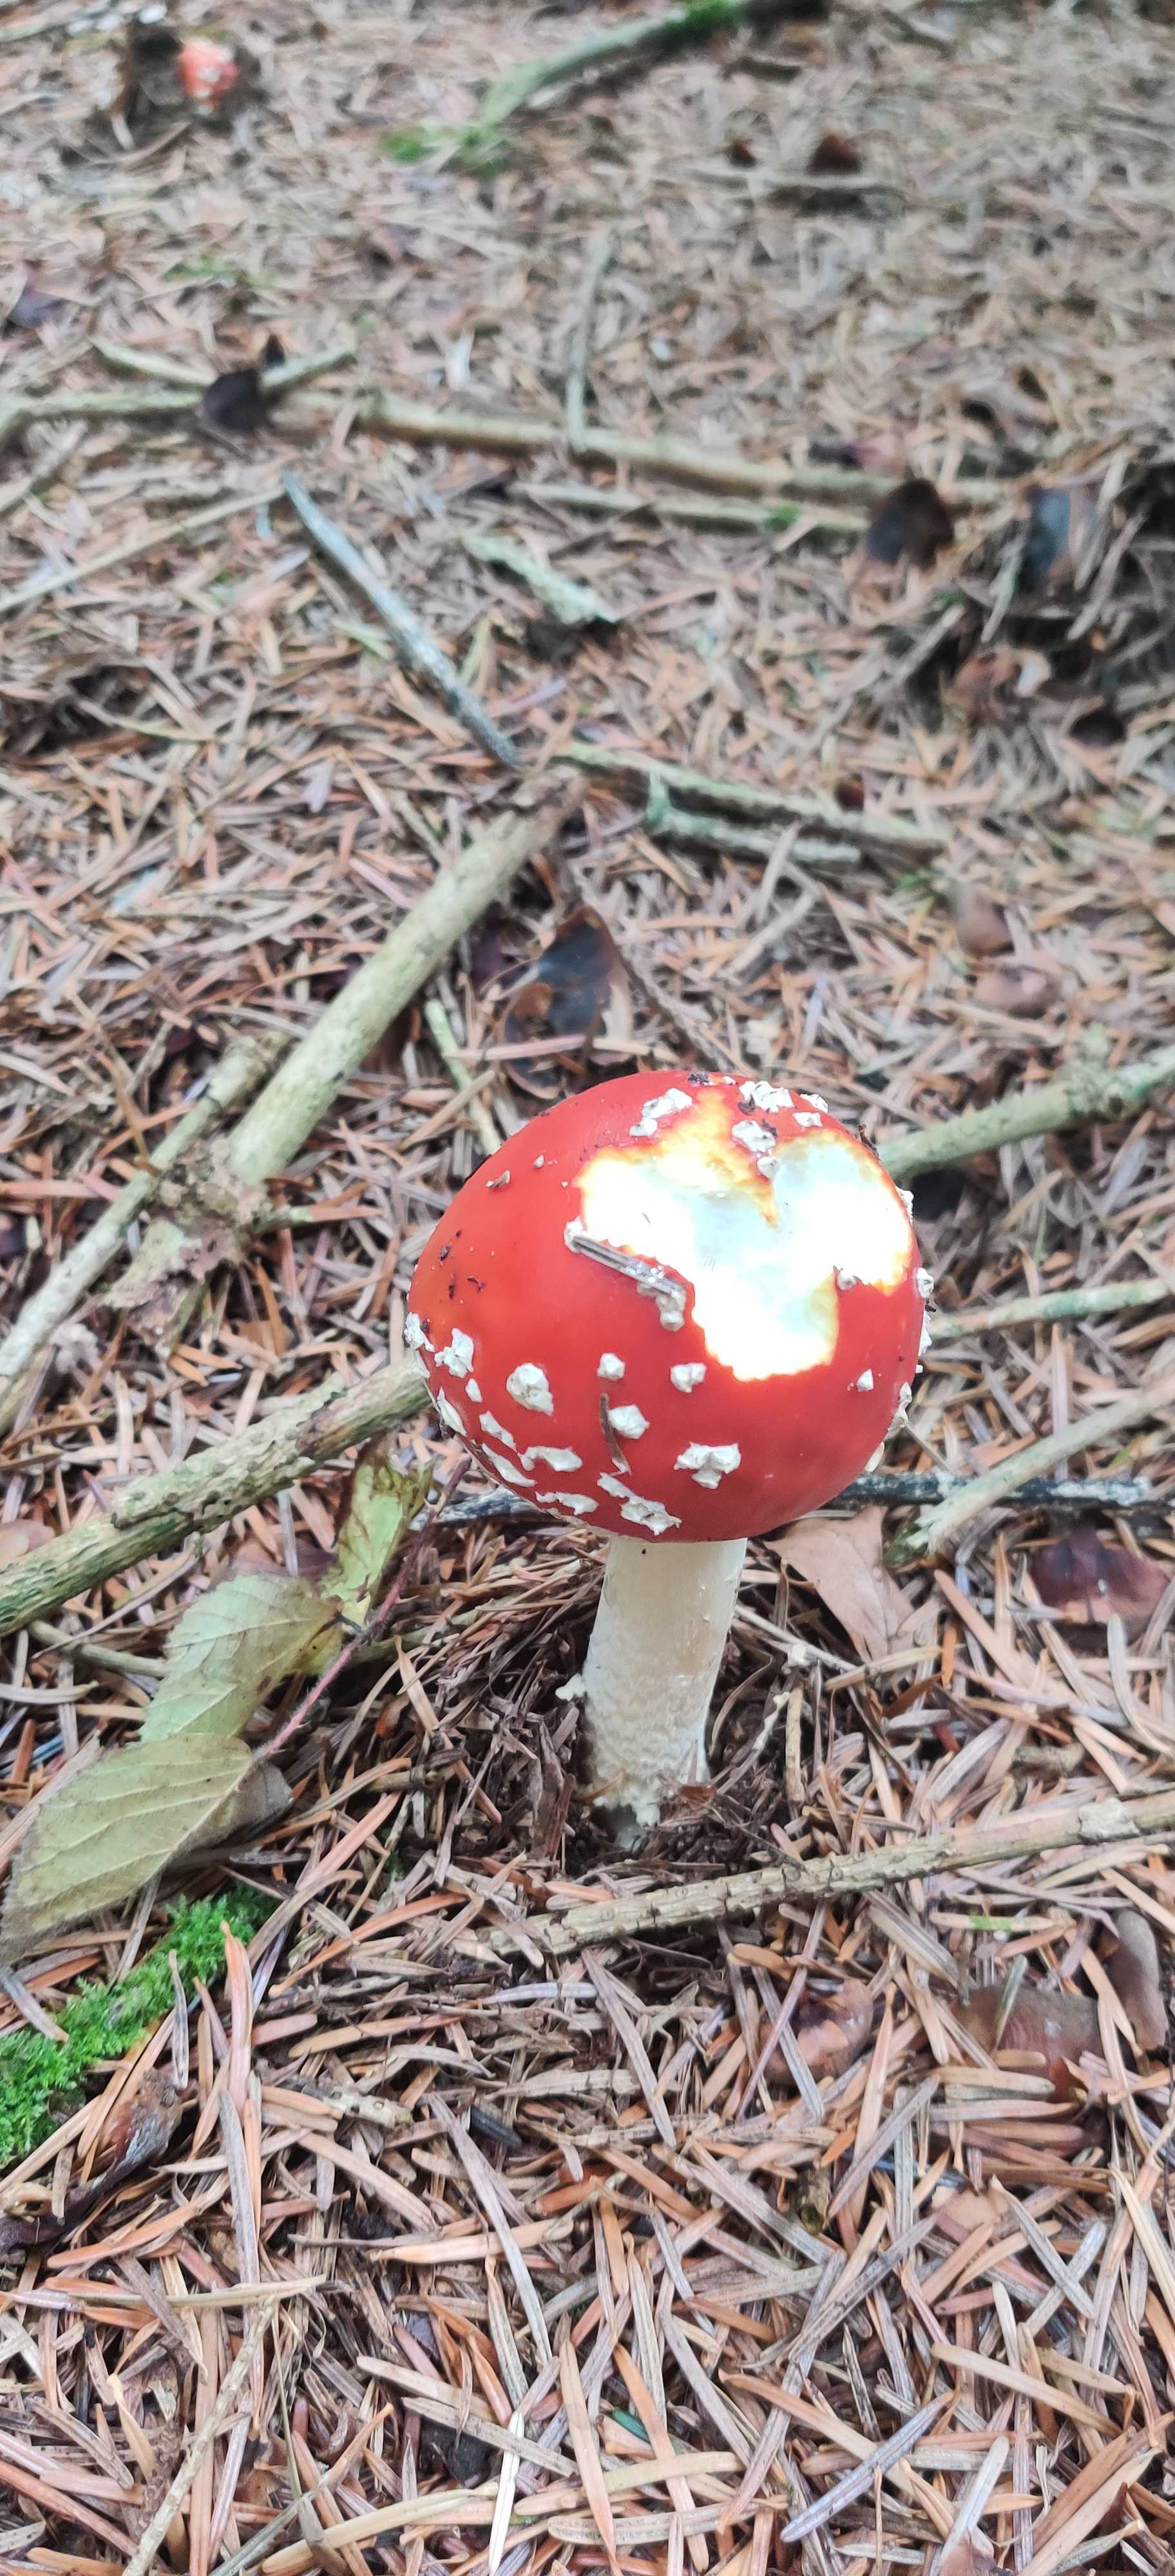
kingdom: Fungi
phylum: Basidiomycota
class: Agaricomycetes
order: Agaricales
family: Amanitaceae
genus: Amanita
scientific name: Amanita muscaria
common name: rød fluesvamp
